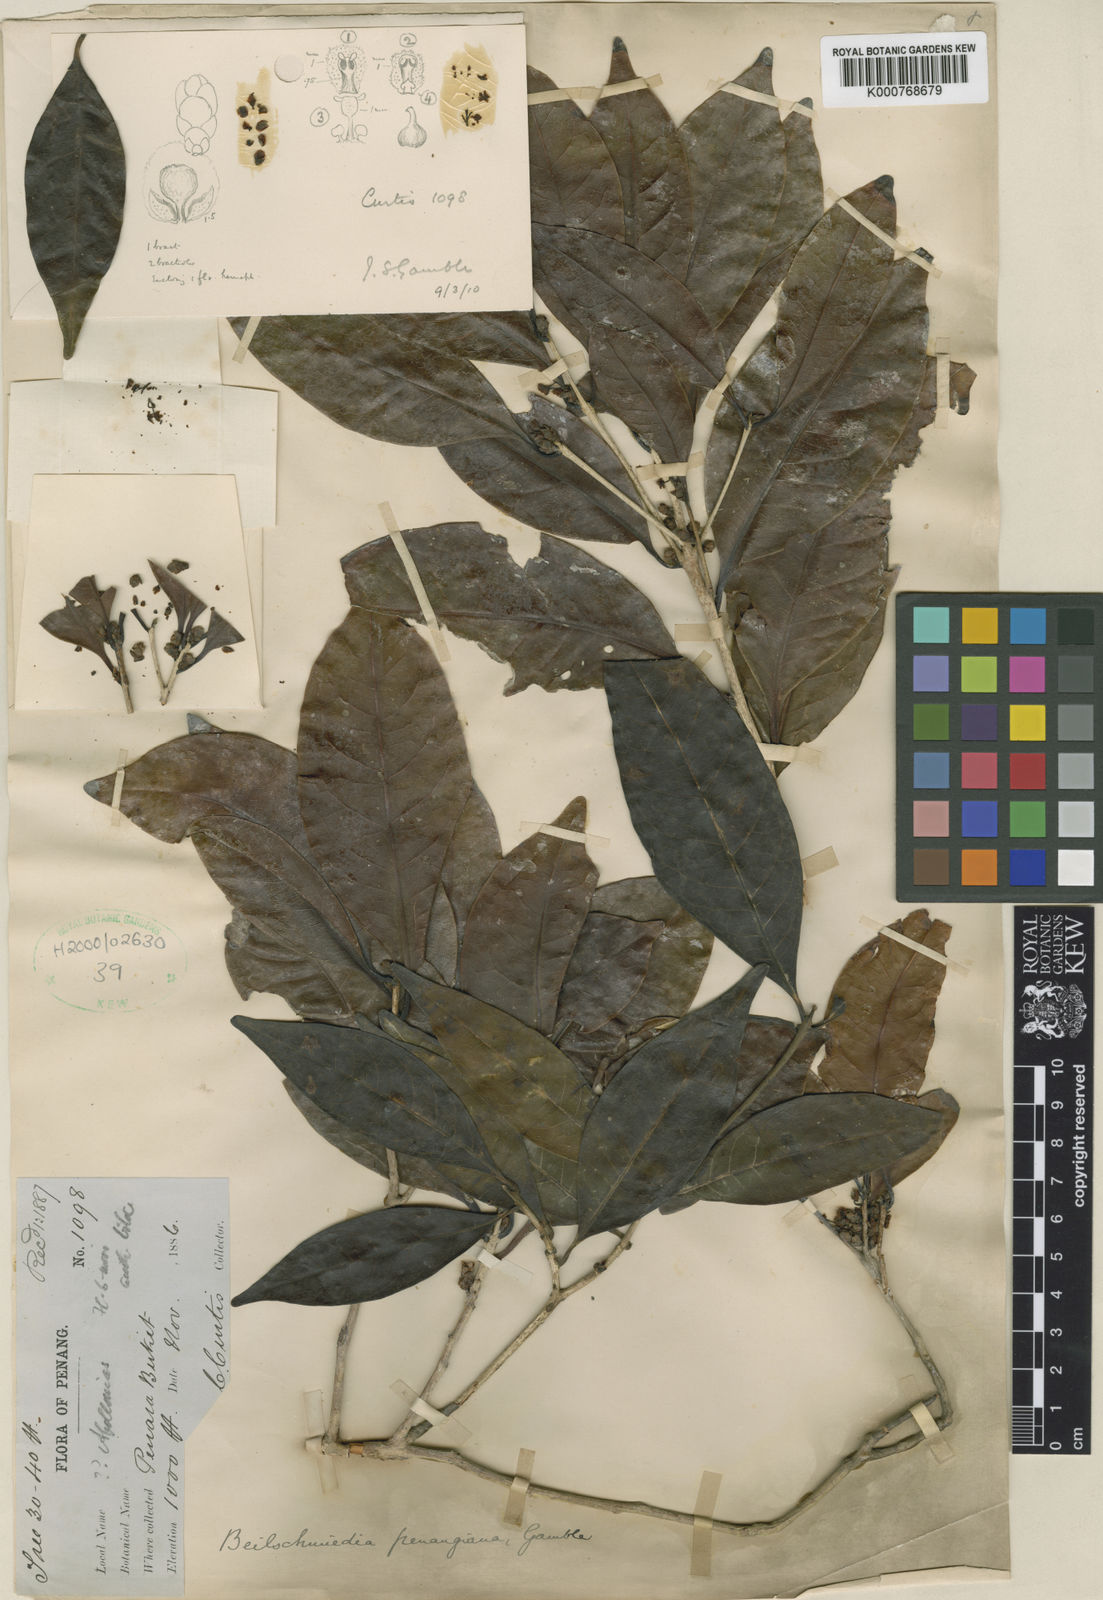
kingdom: Plantae
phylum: Tracheophyta
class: Magnoliopsida
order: Laurales
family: Lauraceae
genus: Beilschmiedia
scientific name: Beilschmiedia penangiana
